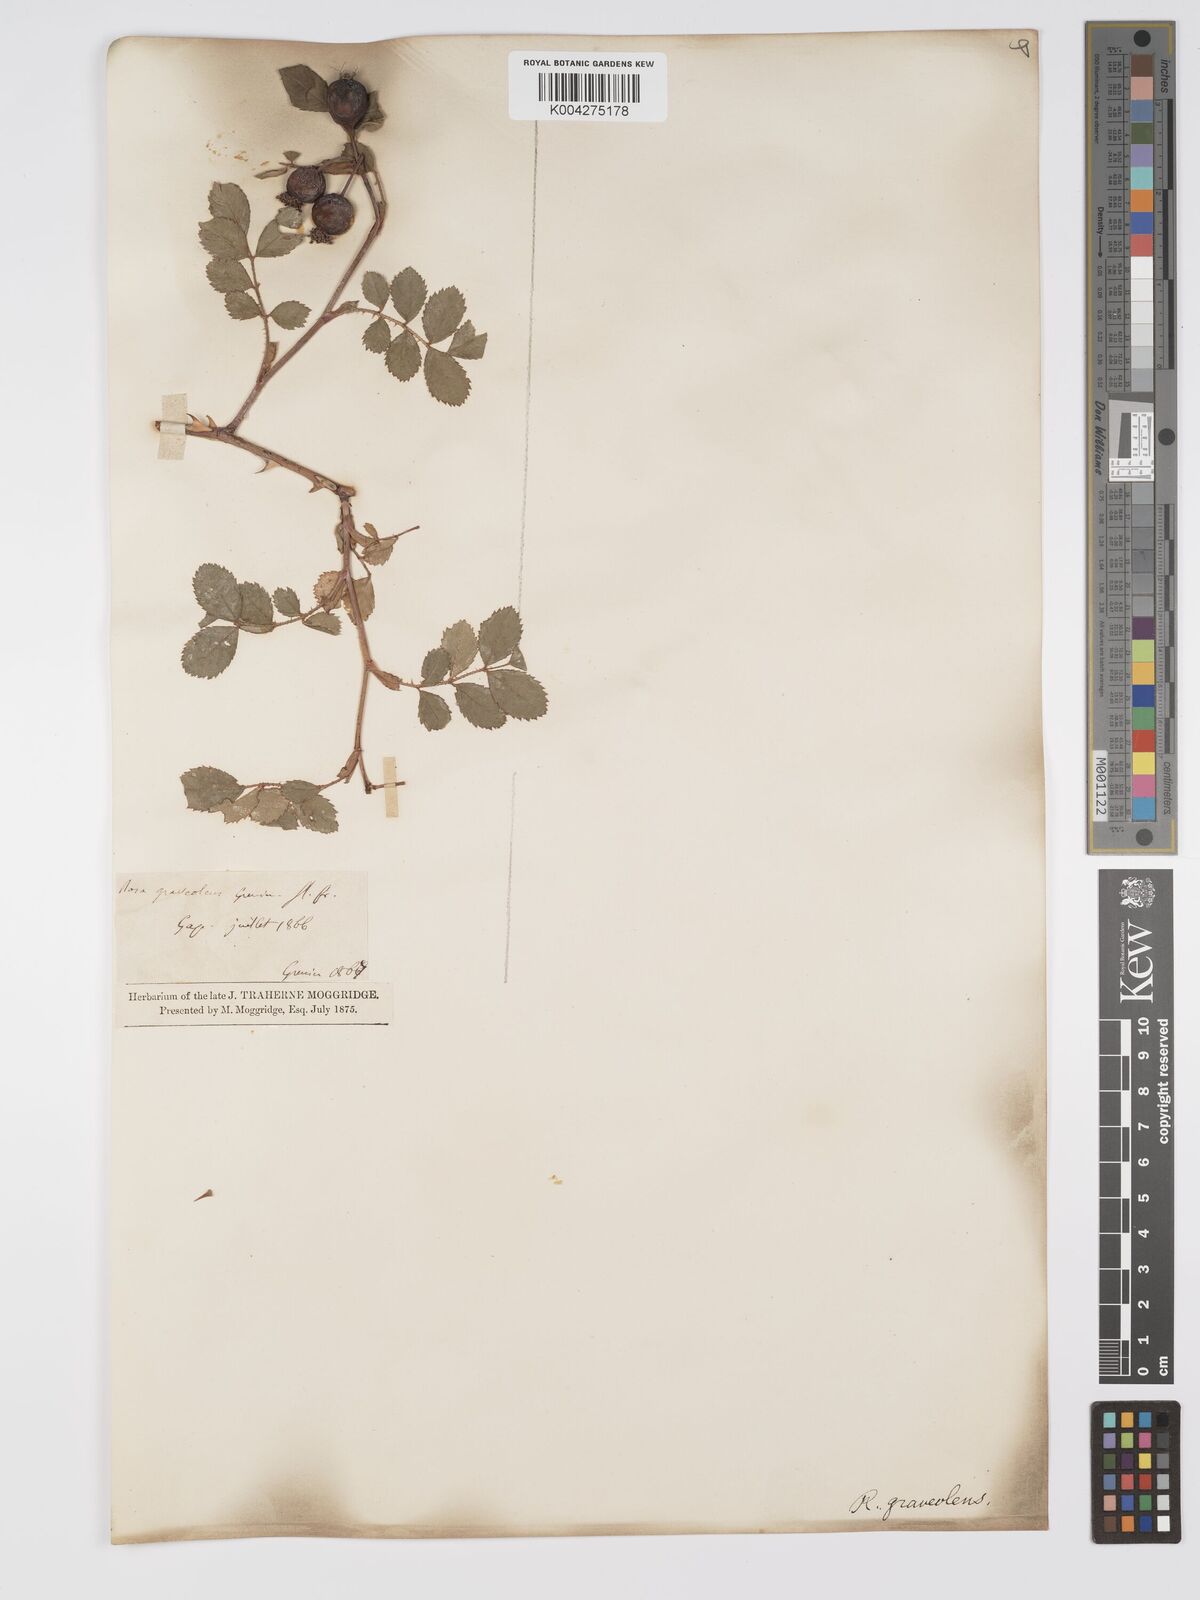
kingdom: Plantae
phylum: Tracheophyta
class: Magnoliopsida
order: Rosales
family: Rosaceae
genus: Rosa
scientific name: Rosa
